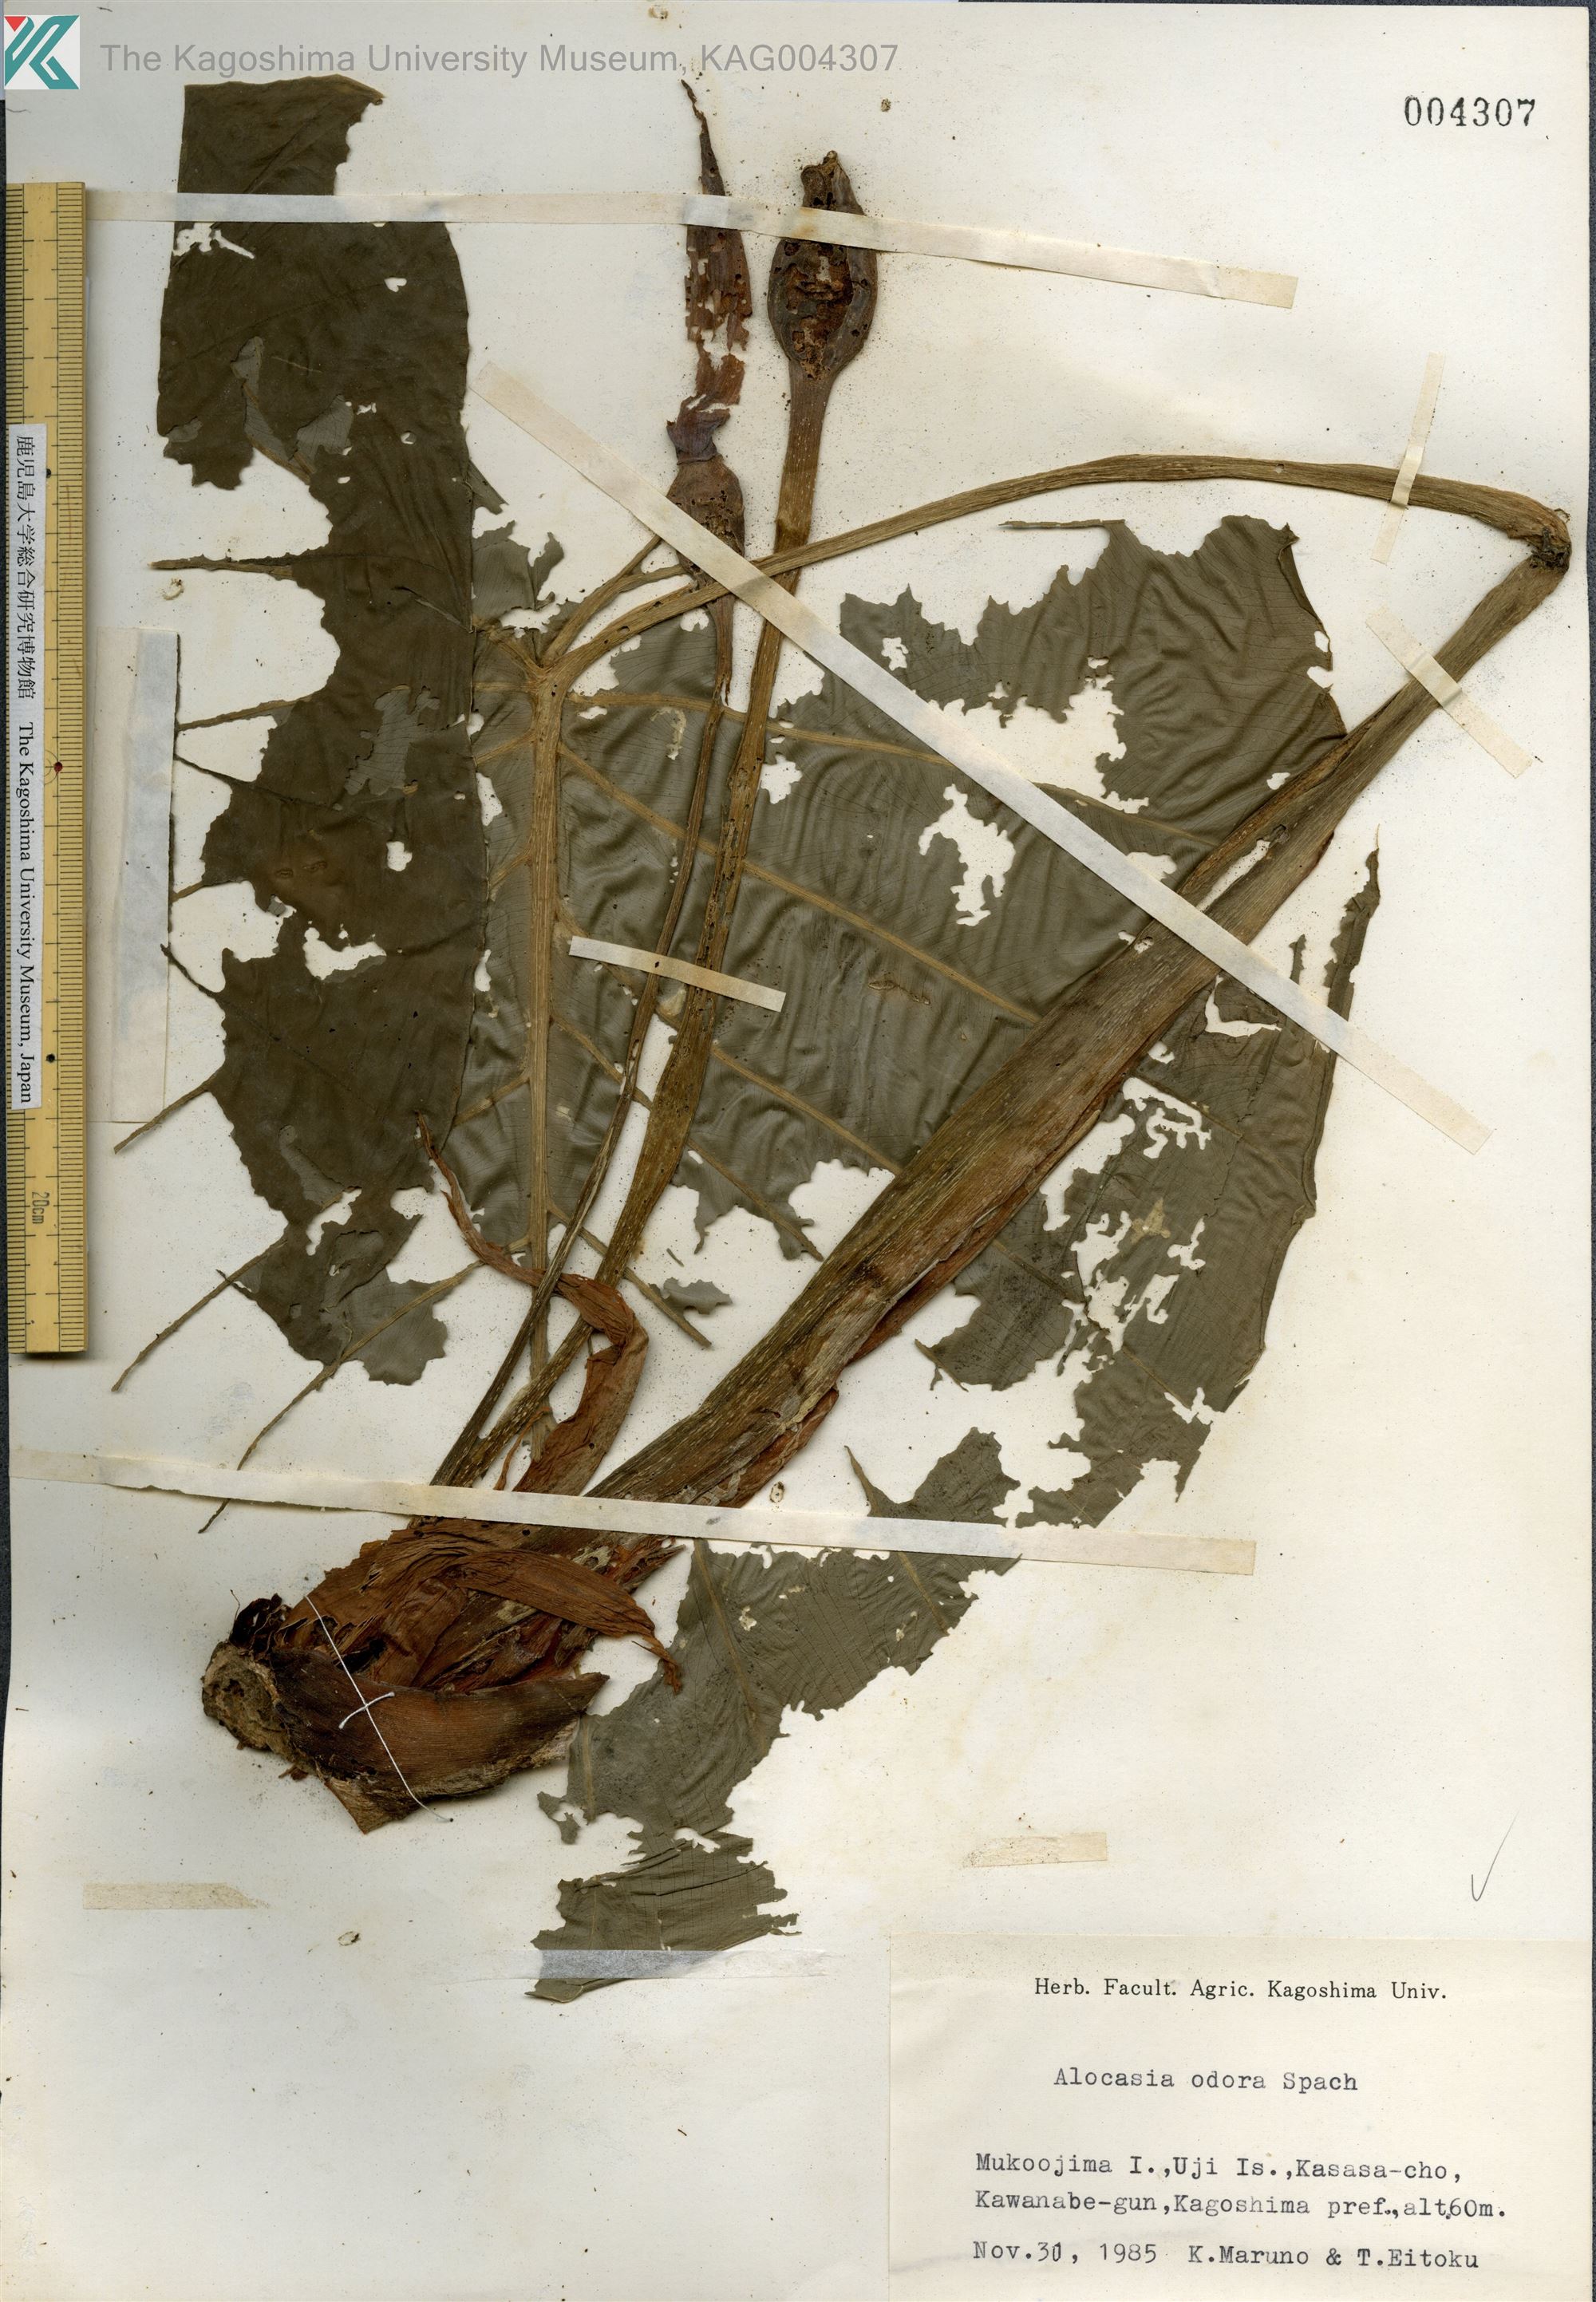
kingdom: Plantae
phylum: Tracheophyta
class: Liliopsida
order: Alismatales
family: Araceae
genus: Alocasia
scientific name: Alocasia odora
